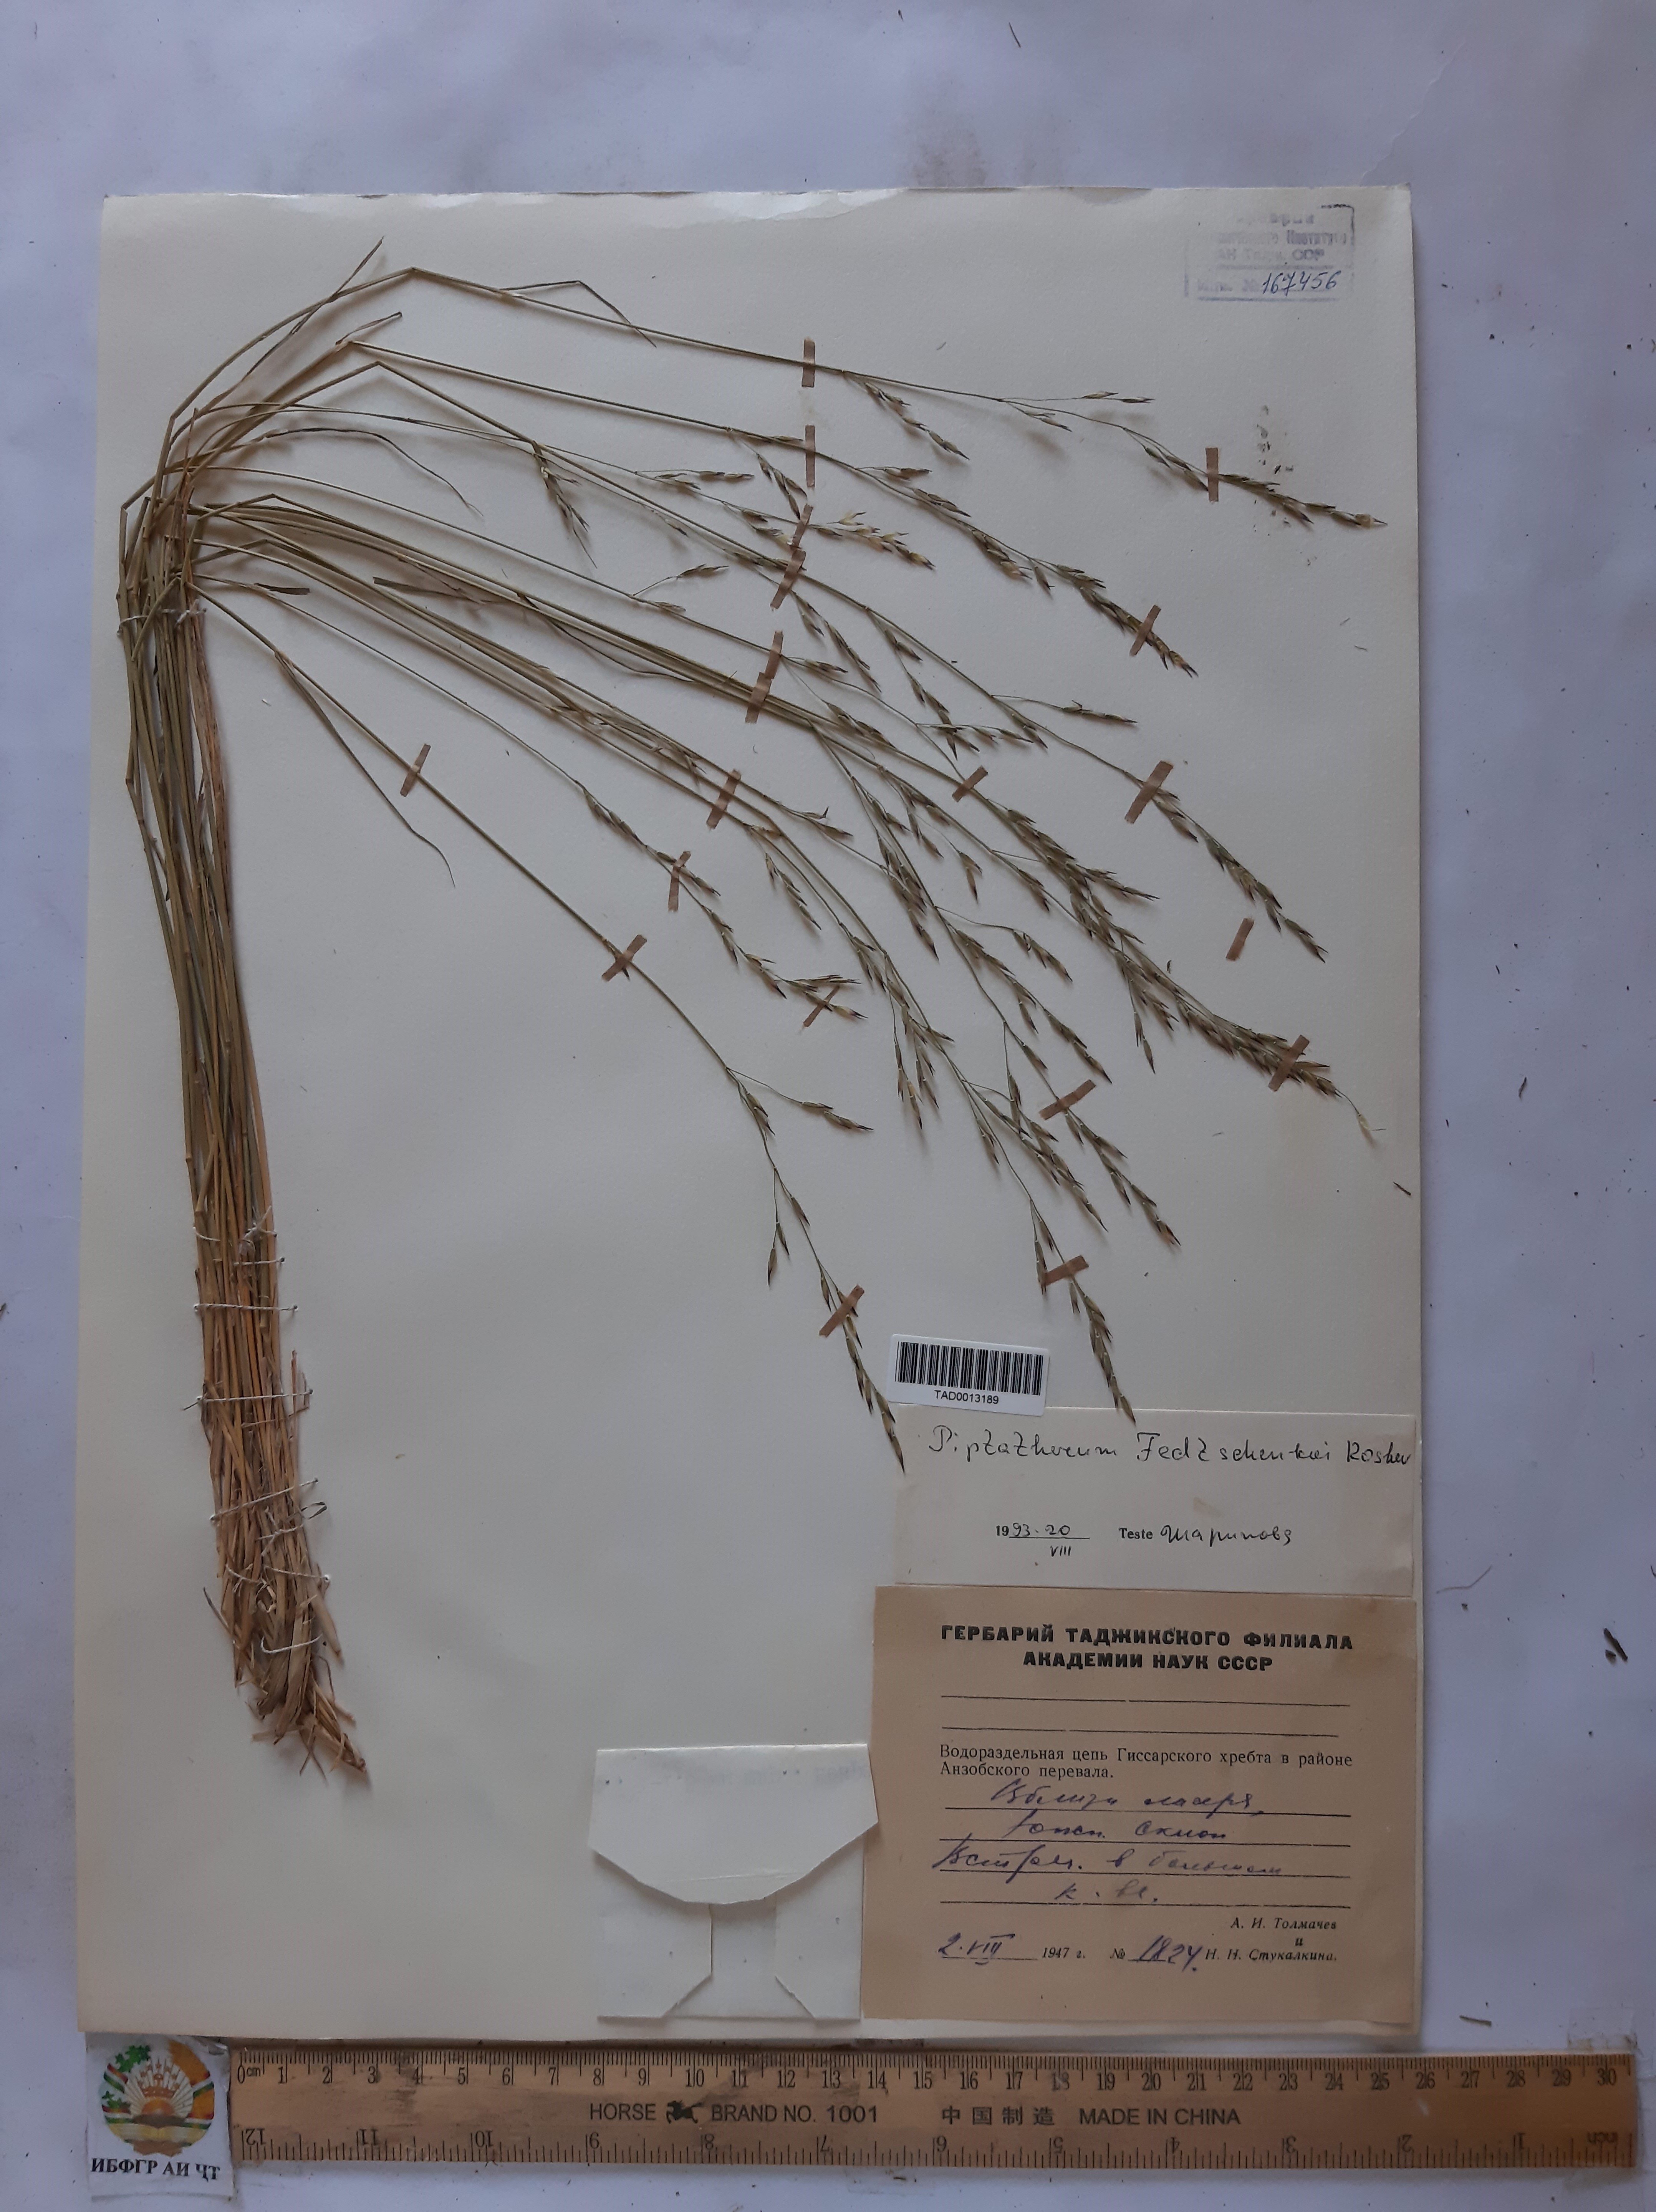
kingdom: Plantae
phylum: Tracheophyta
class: Liliopsida
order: Poales
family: Poaceae
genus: Piptatherum
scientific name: Piptatherum sogdianum
